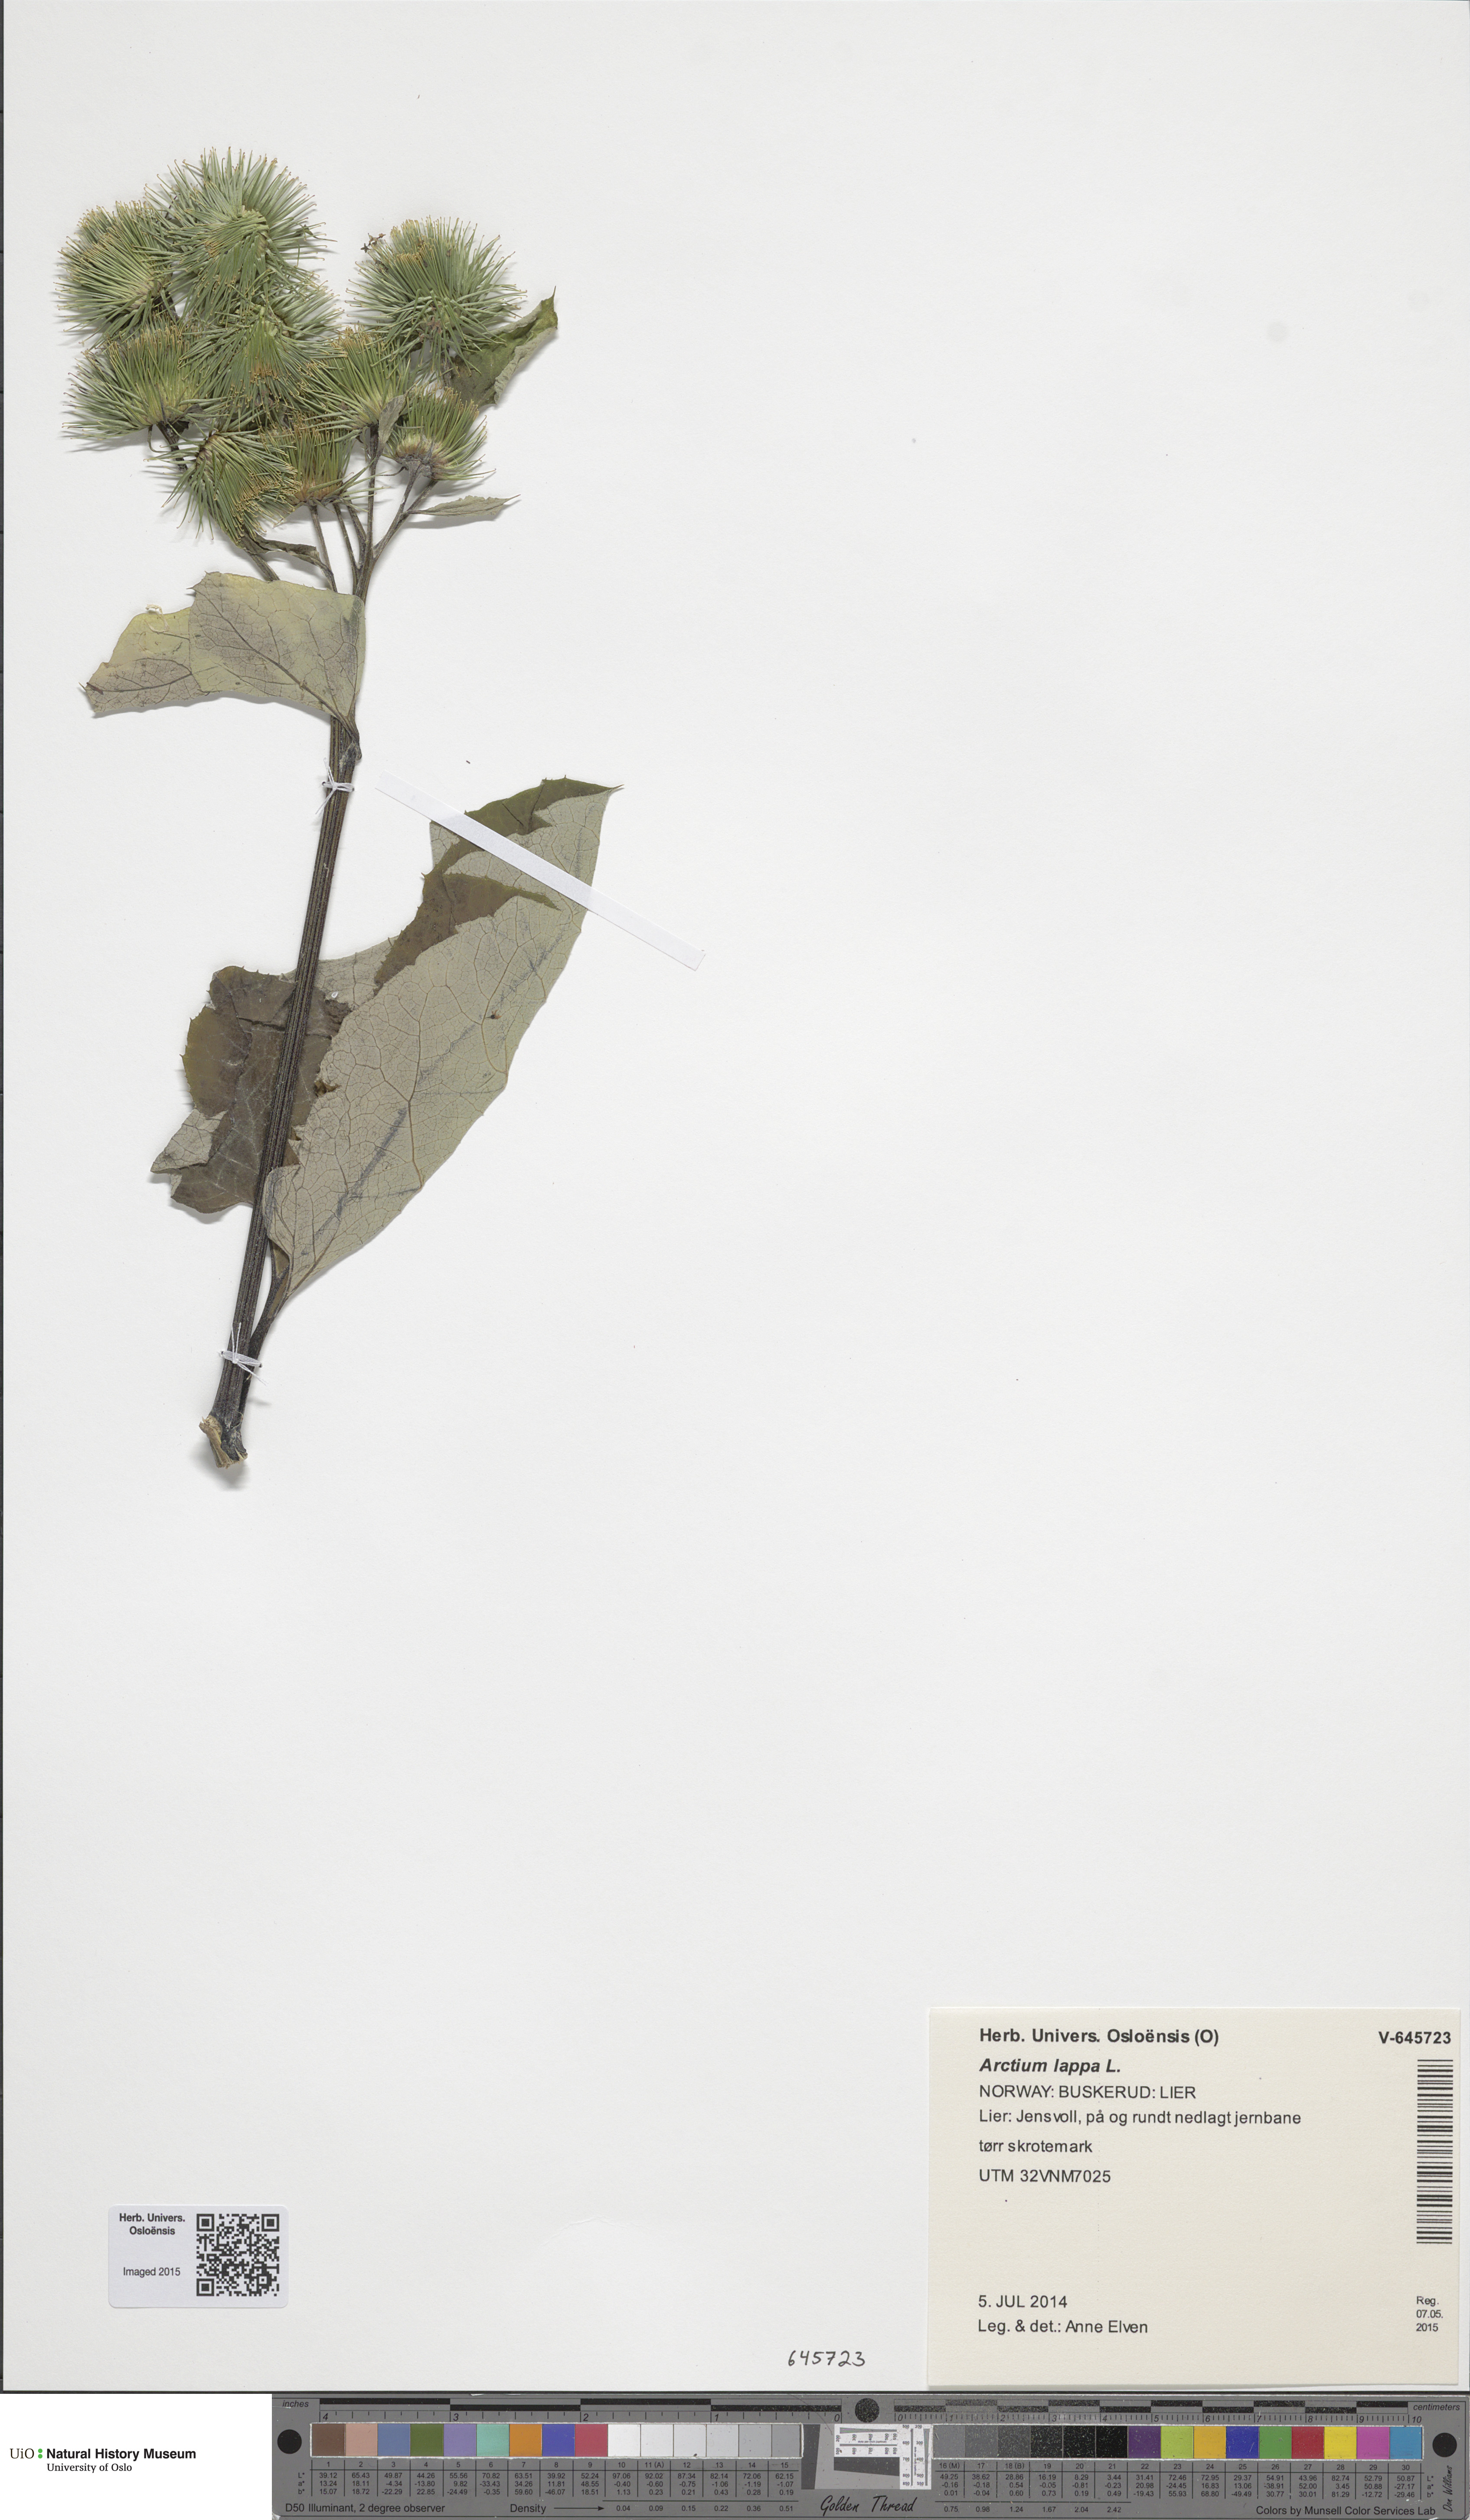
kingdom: Plantae
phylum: Tracheophyta
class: Magnoliopsida
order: Asterales
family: Asteraceae
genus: Arctium
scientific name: Arctium lappa
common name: Greater burdock
